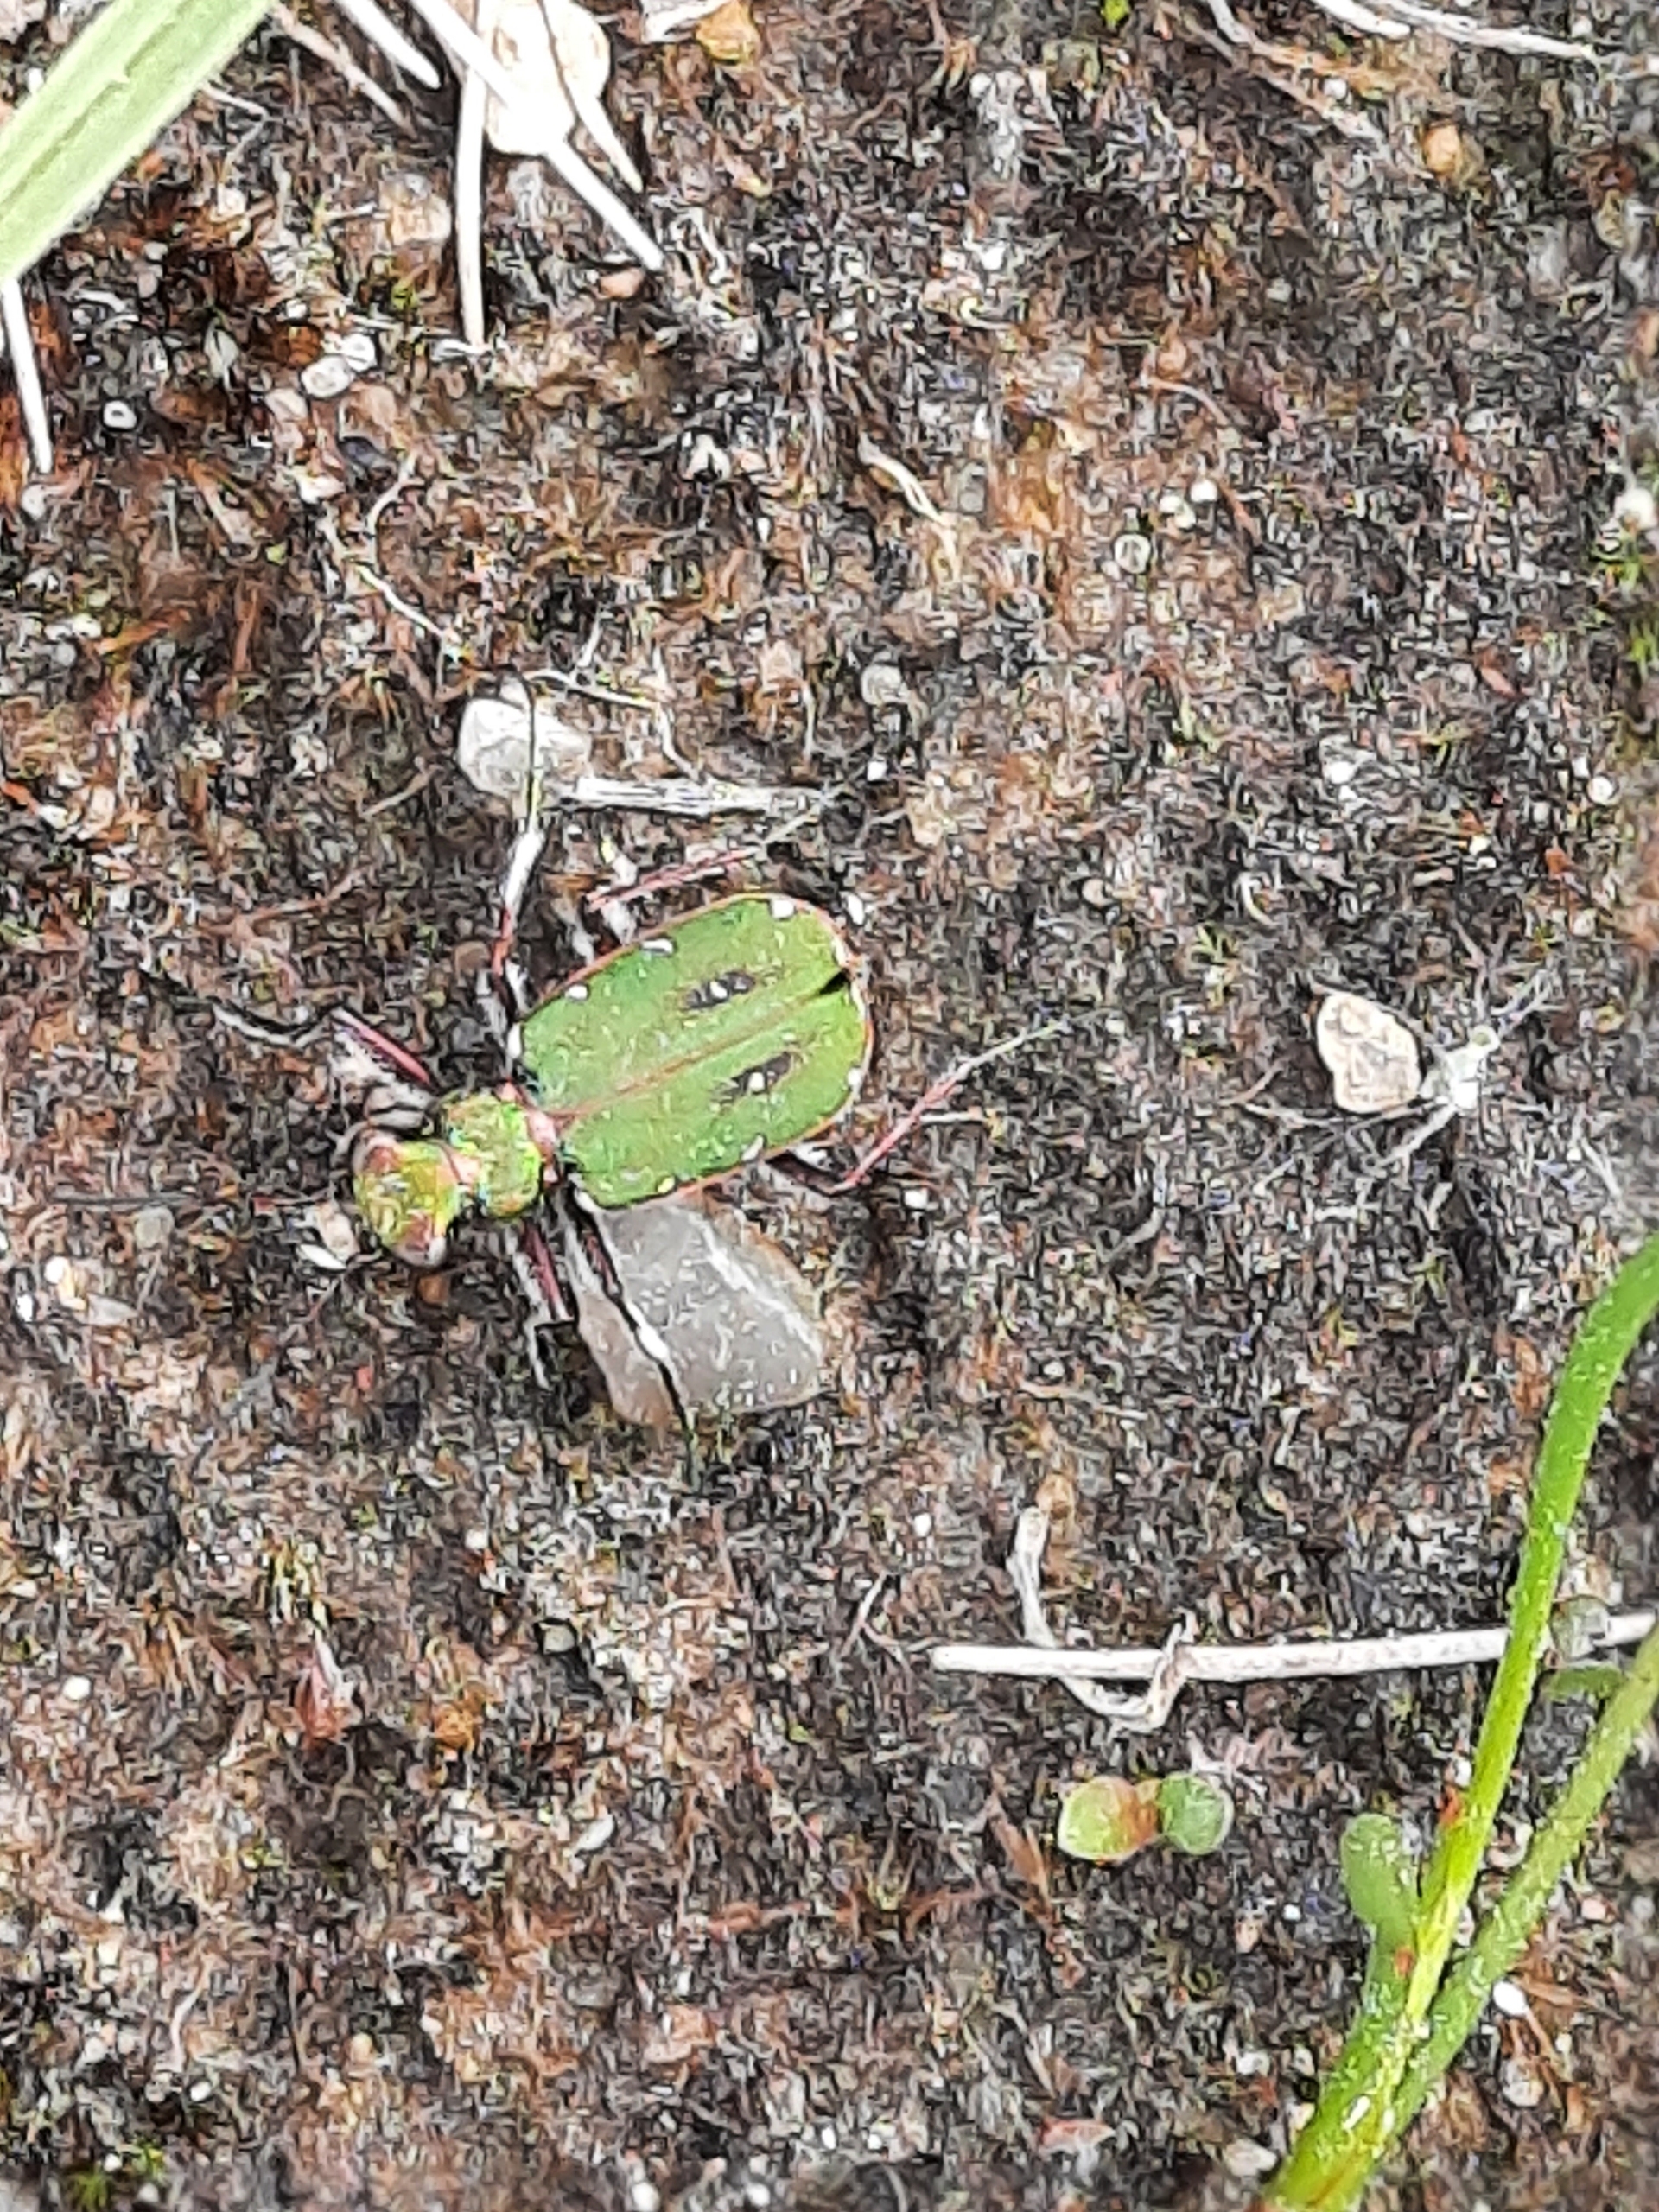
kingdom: Animalia
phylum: Arthropoda
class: Insecta
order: Coleoptera
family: Carabidae
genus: Cicindela
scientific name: Cicindela campestris
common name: Grøn sandspringer
